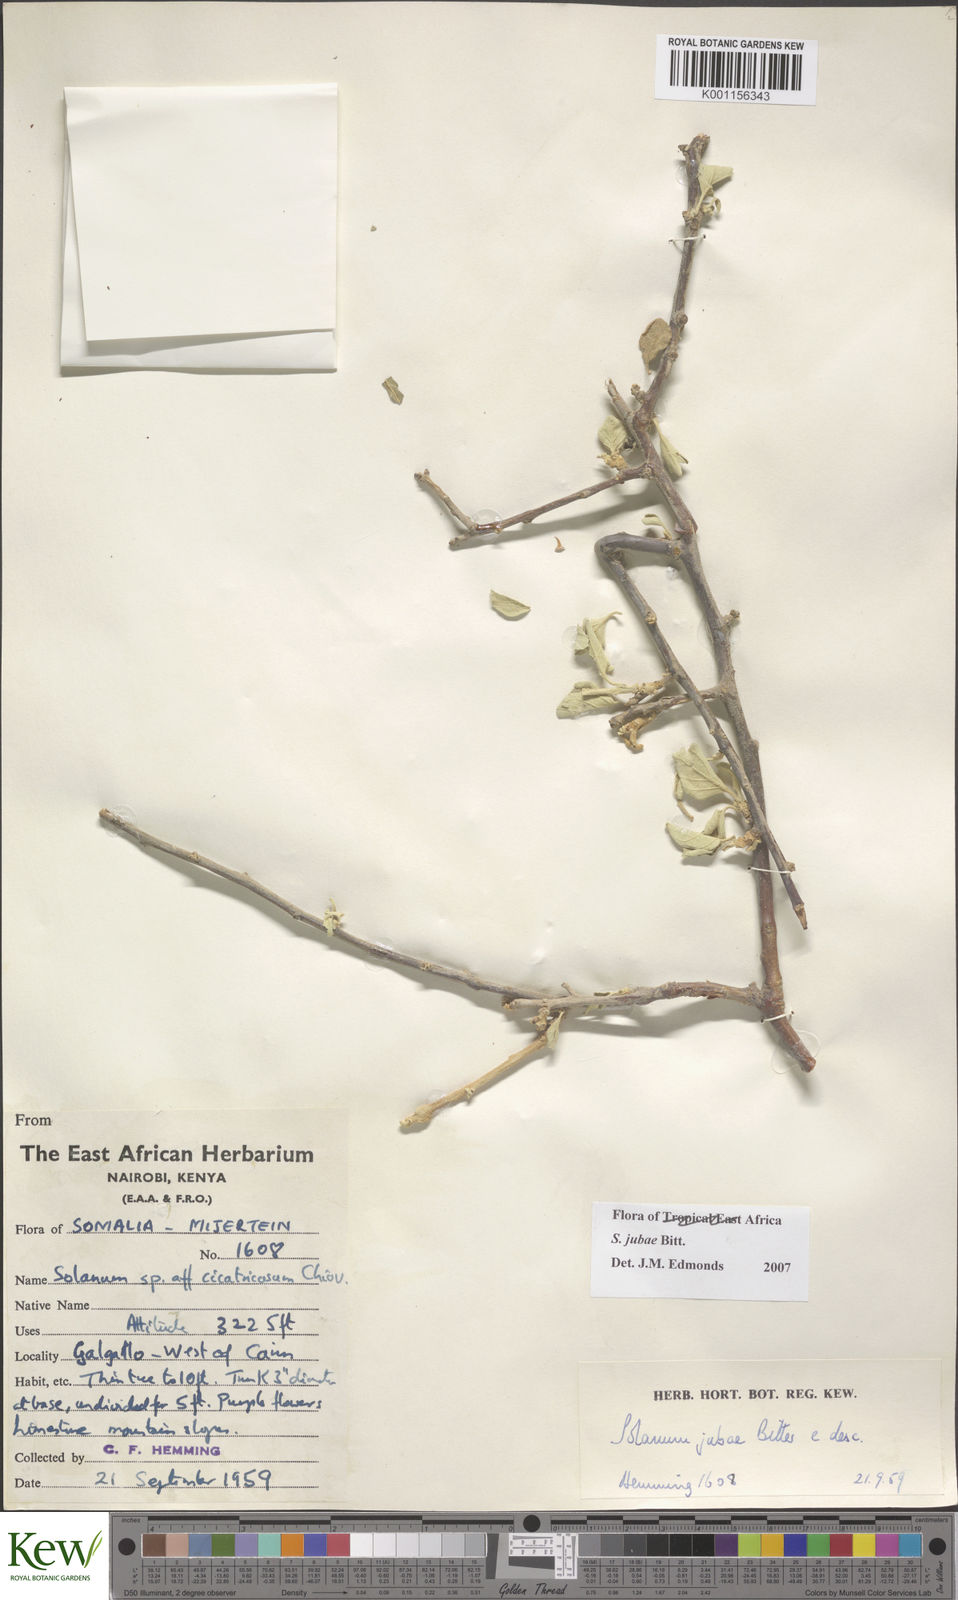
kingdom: Plantae
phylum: Tracheophyta
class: Magnoliopsida
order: Solanales
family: Solanaceae
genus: Solanum
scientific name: Solanum jubae
